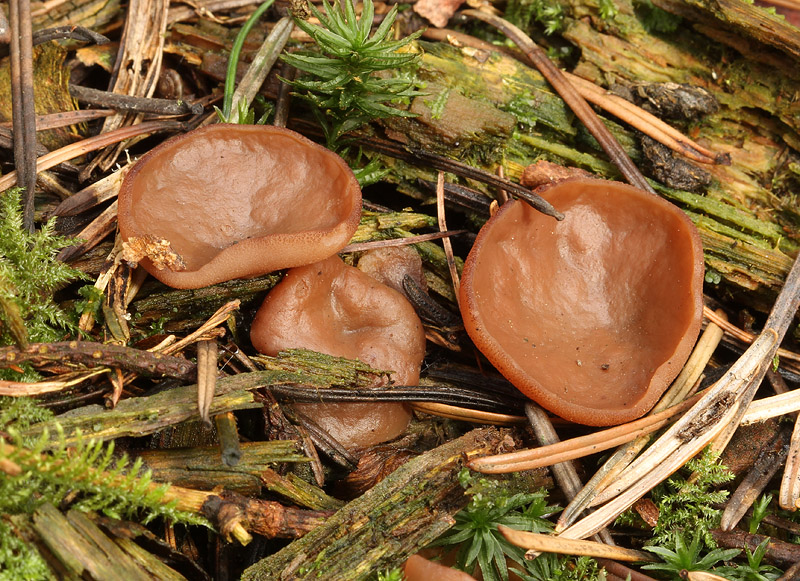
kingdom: Fungi
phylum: Ascomycota
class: Pezizomycetes
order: Pezizales
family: Discinaceae
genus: Discina
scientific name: Discina ancilis
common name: udbredt stenmorkel
